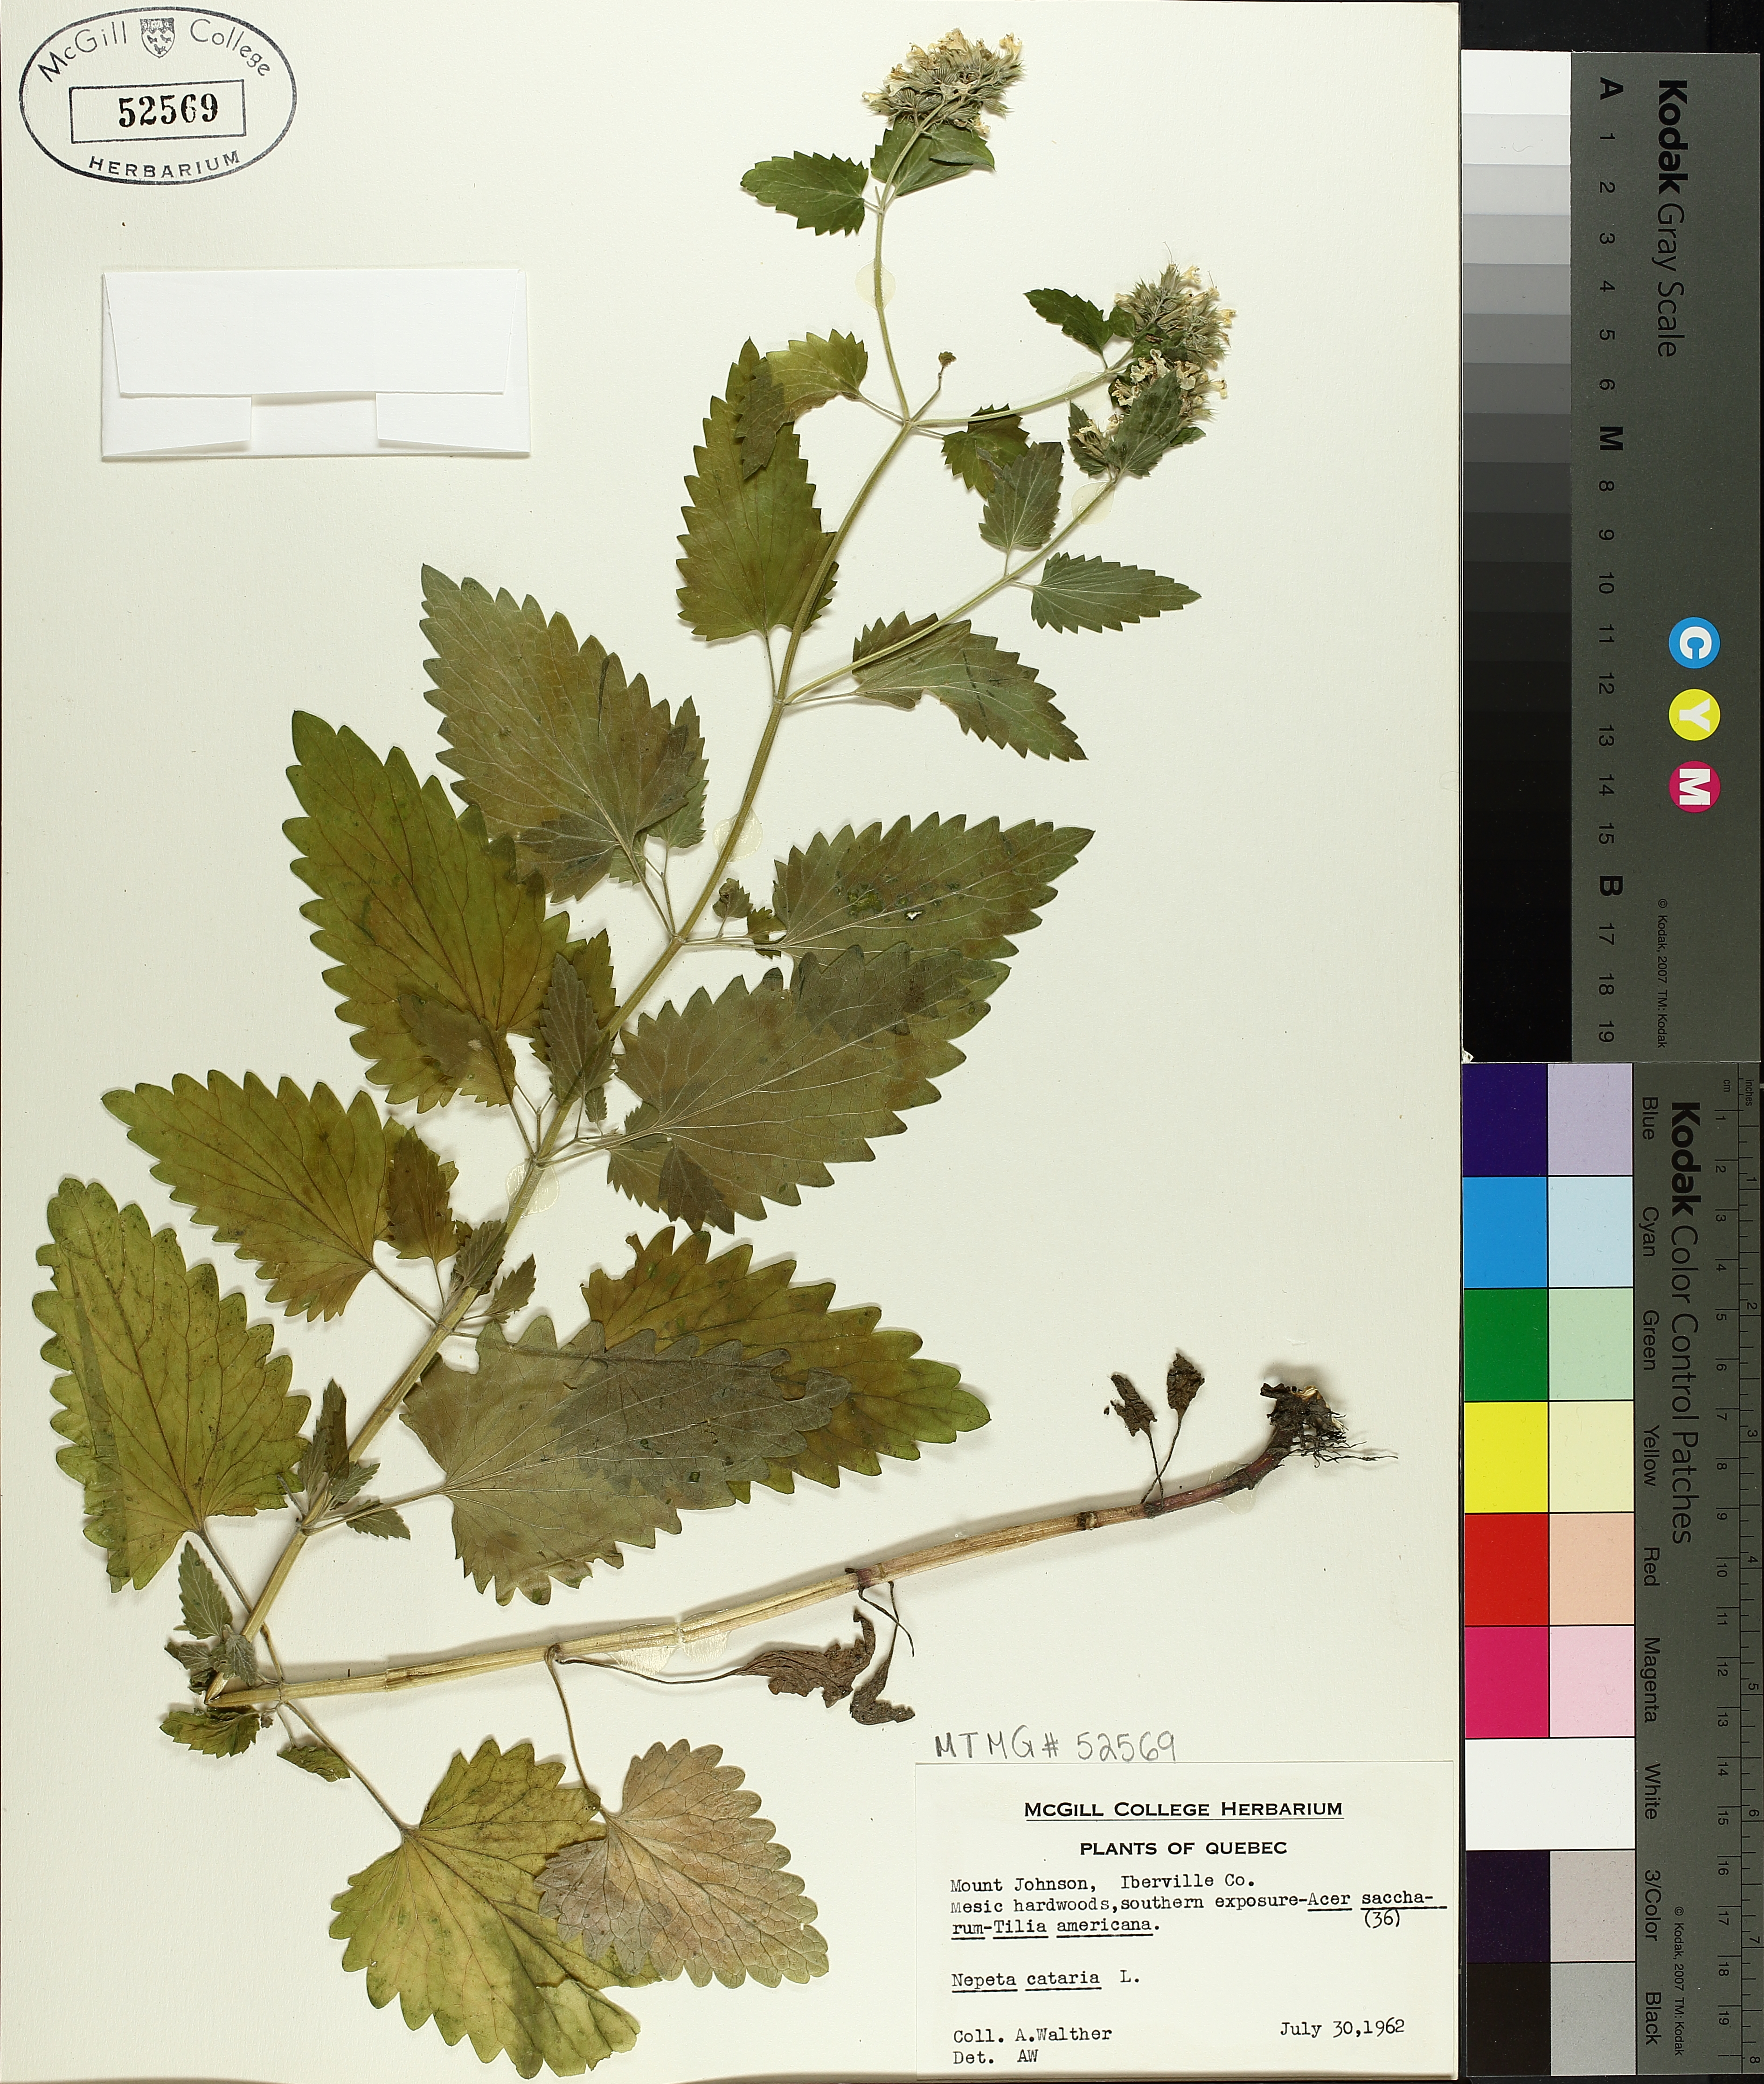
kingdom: Plantae
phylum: Tracheophyta
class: Magnoliopsida
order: Lamiales
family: Lamiaceae
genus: Nepeta
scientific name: Nepeta cataria
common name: Catnip
